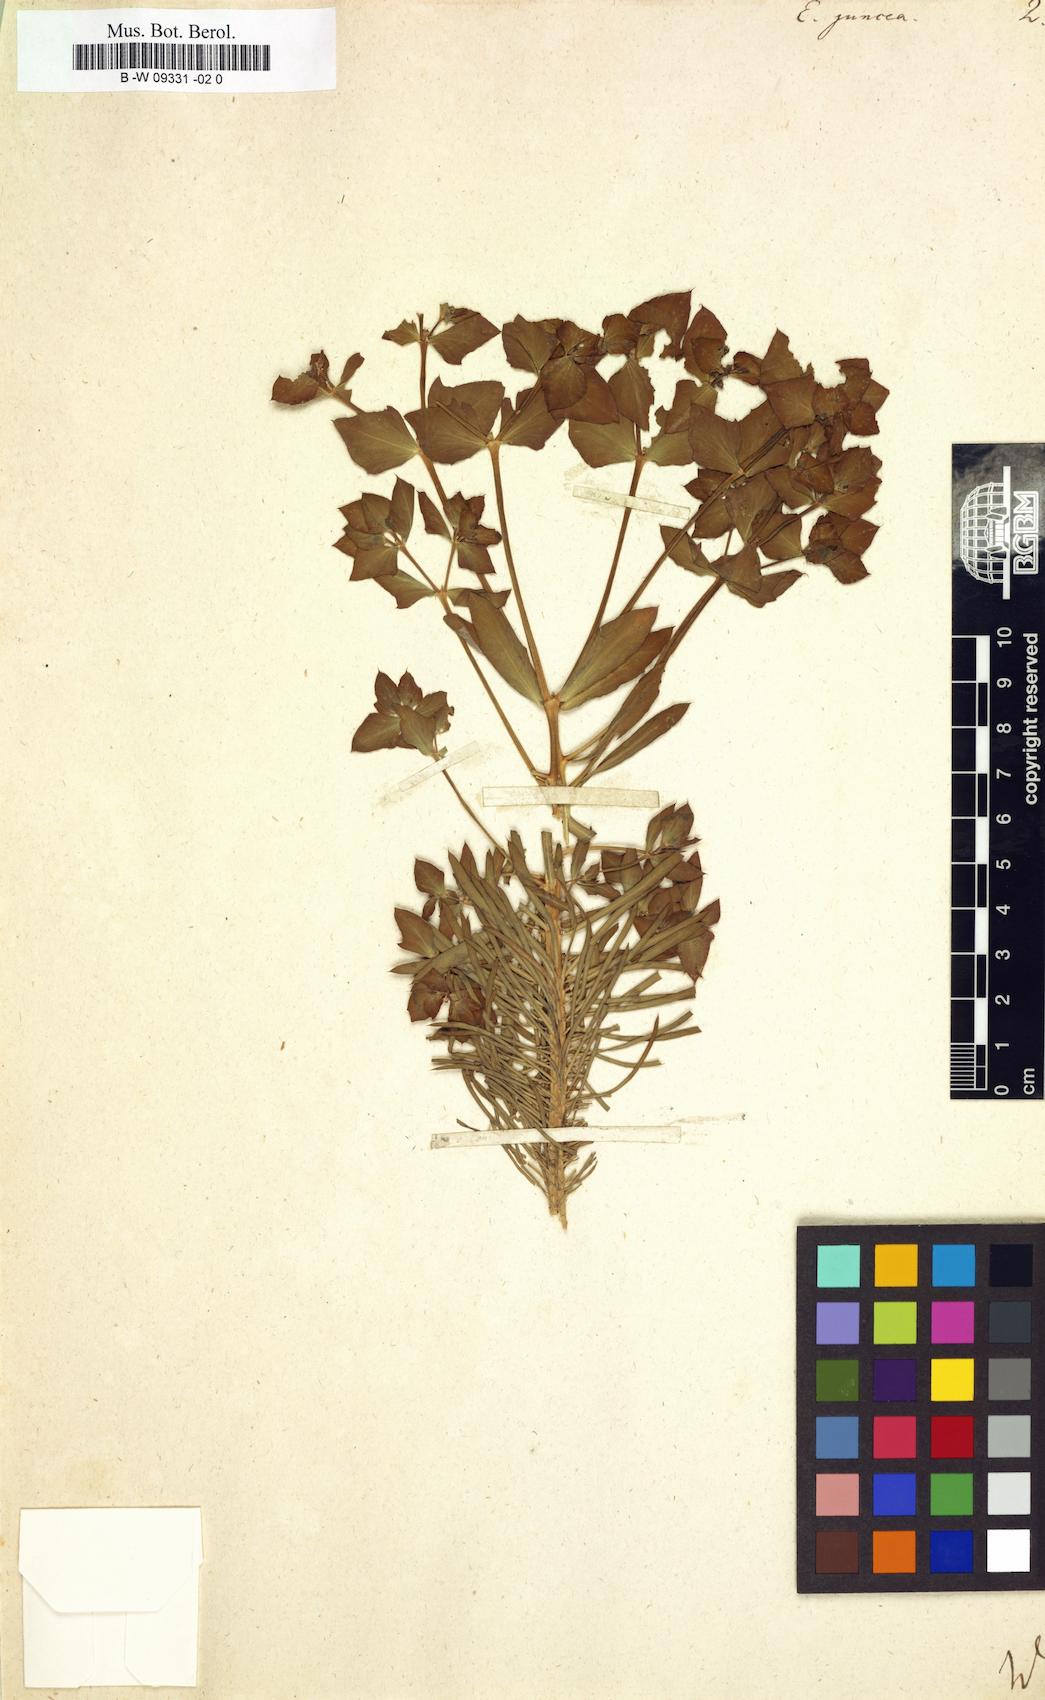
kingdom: Plantae
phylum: Tracheophyta
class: Magnoliopsida
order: Malpighiales
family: Euphorbiaceae
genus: Euphorbia
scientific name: Euphorbia aleppica
